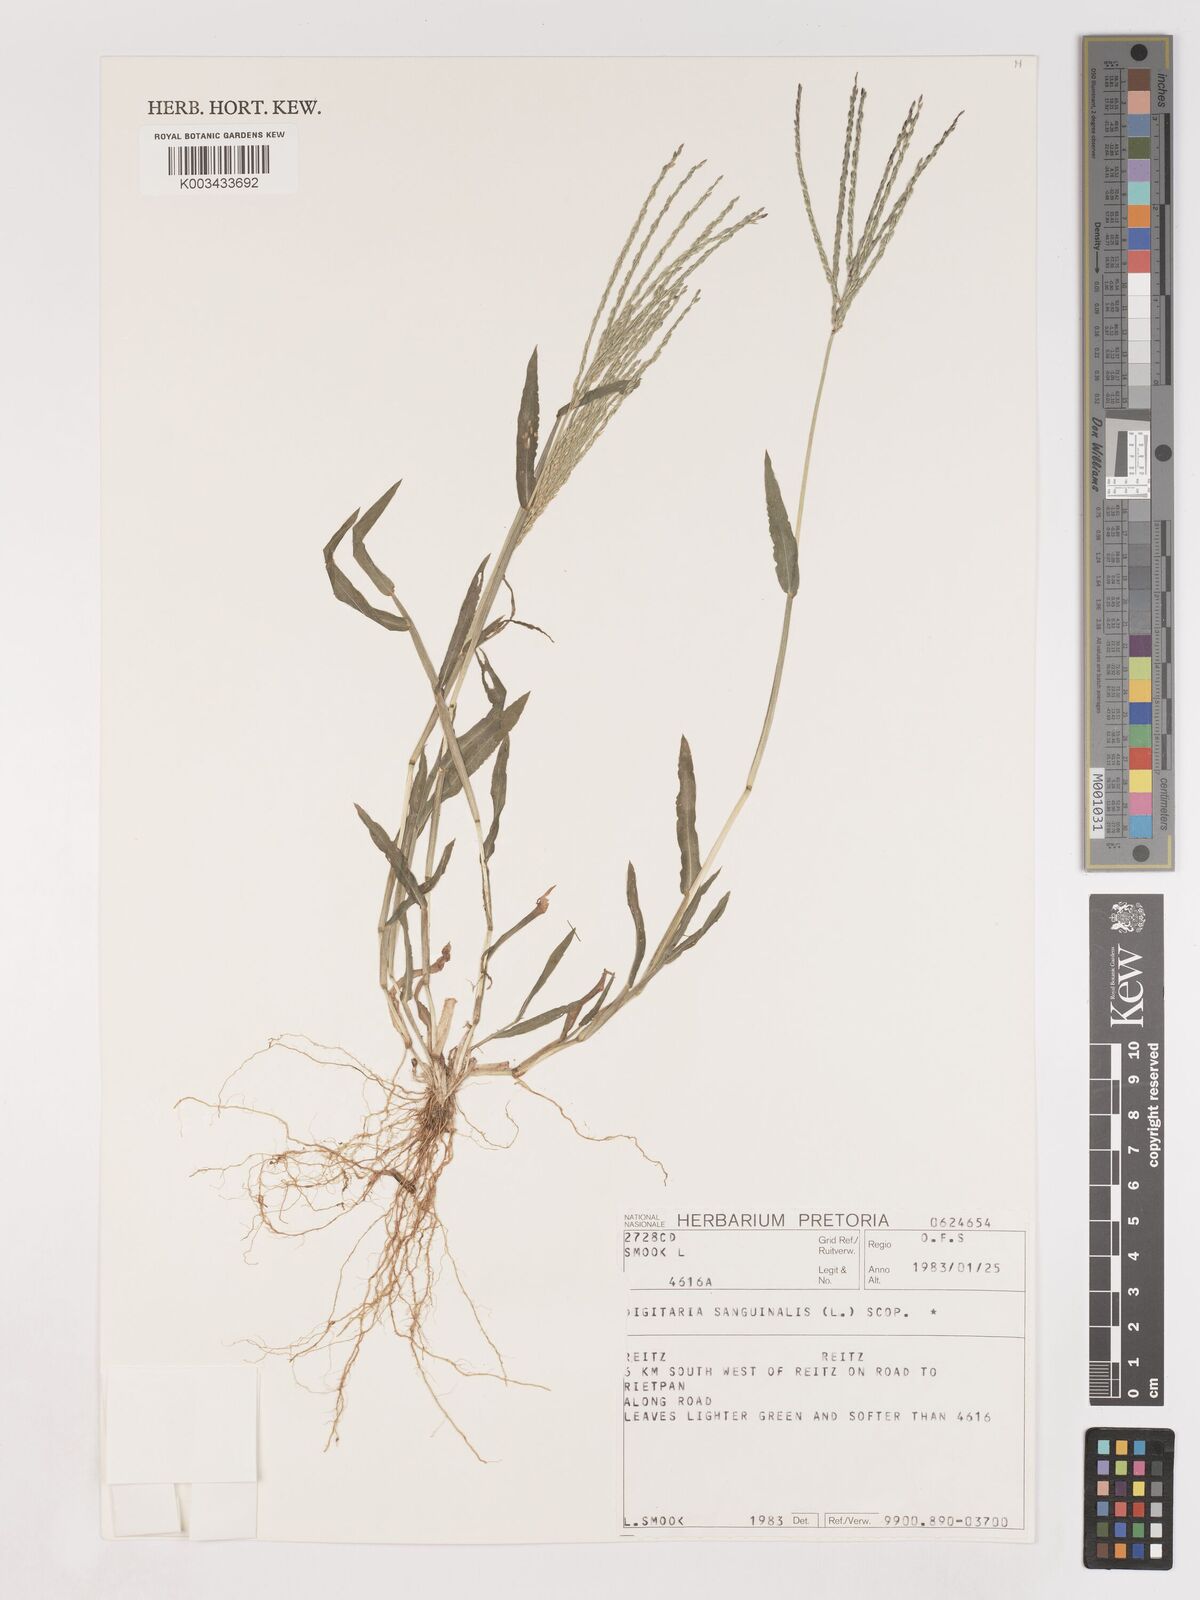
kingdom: Plantae
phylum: Tracheophyta
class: Liliopsida
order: Poales
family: Poaceae
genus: Digitaria
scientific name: Digitaria sanguinalis
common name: Hairy crabgrass
